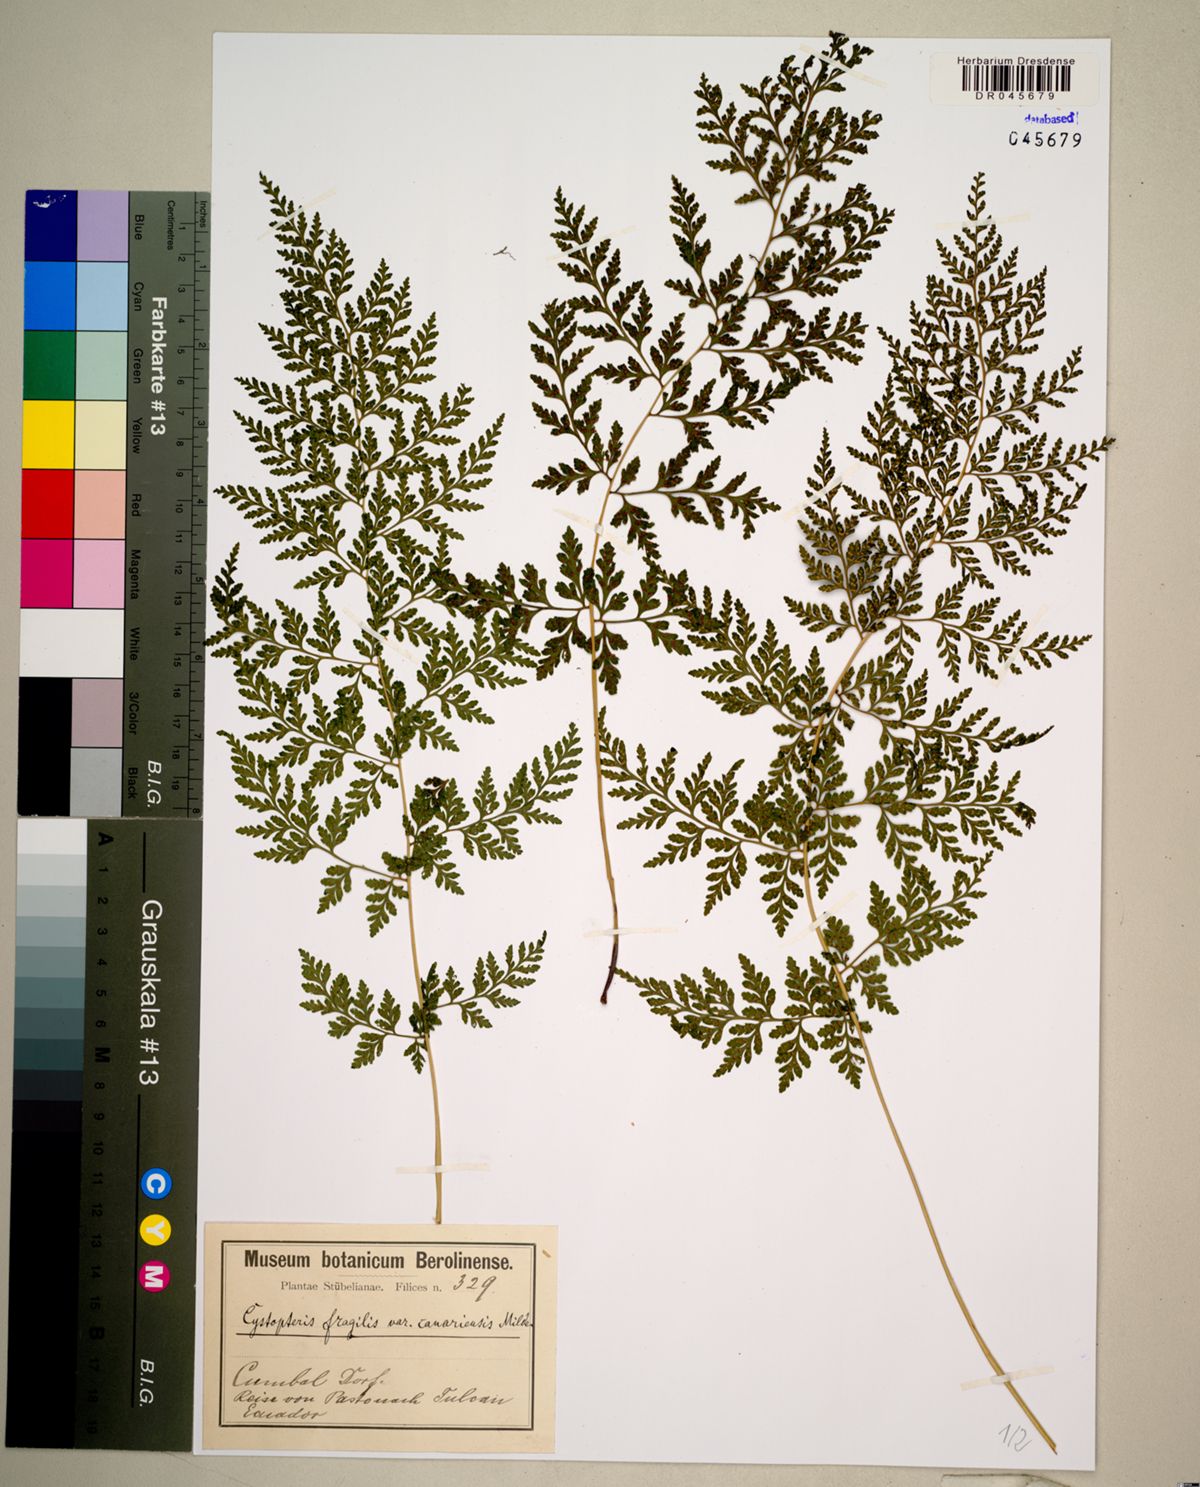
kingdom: Plantae
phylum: Tracheophyta
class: Polypodiopsida
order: Polypodiales
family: Cystopteridaceae
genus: Cystopteris
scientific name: Cystopteris fragilis
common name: Brittle bladder fern
